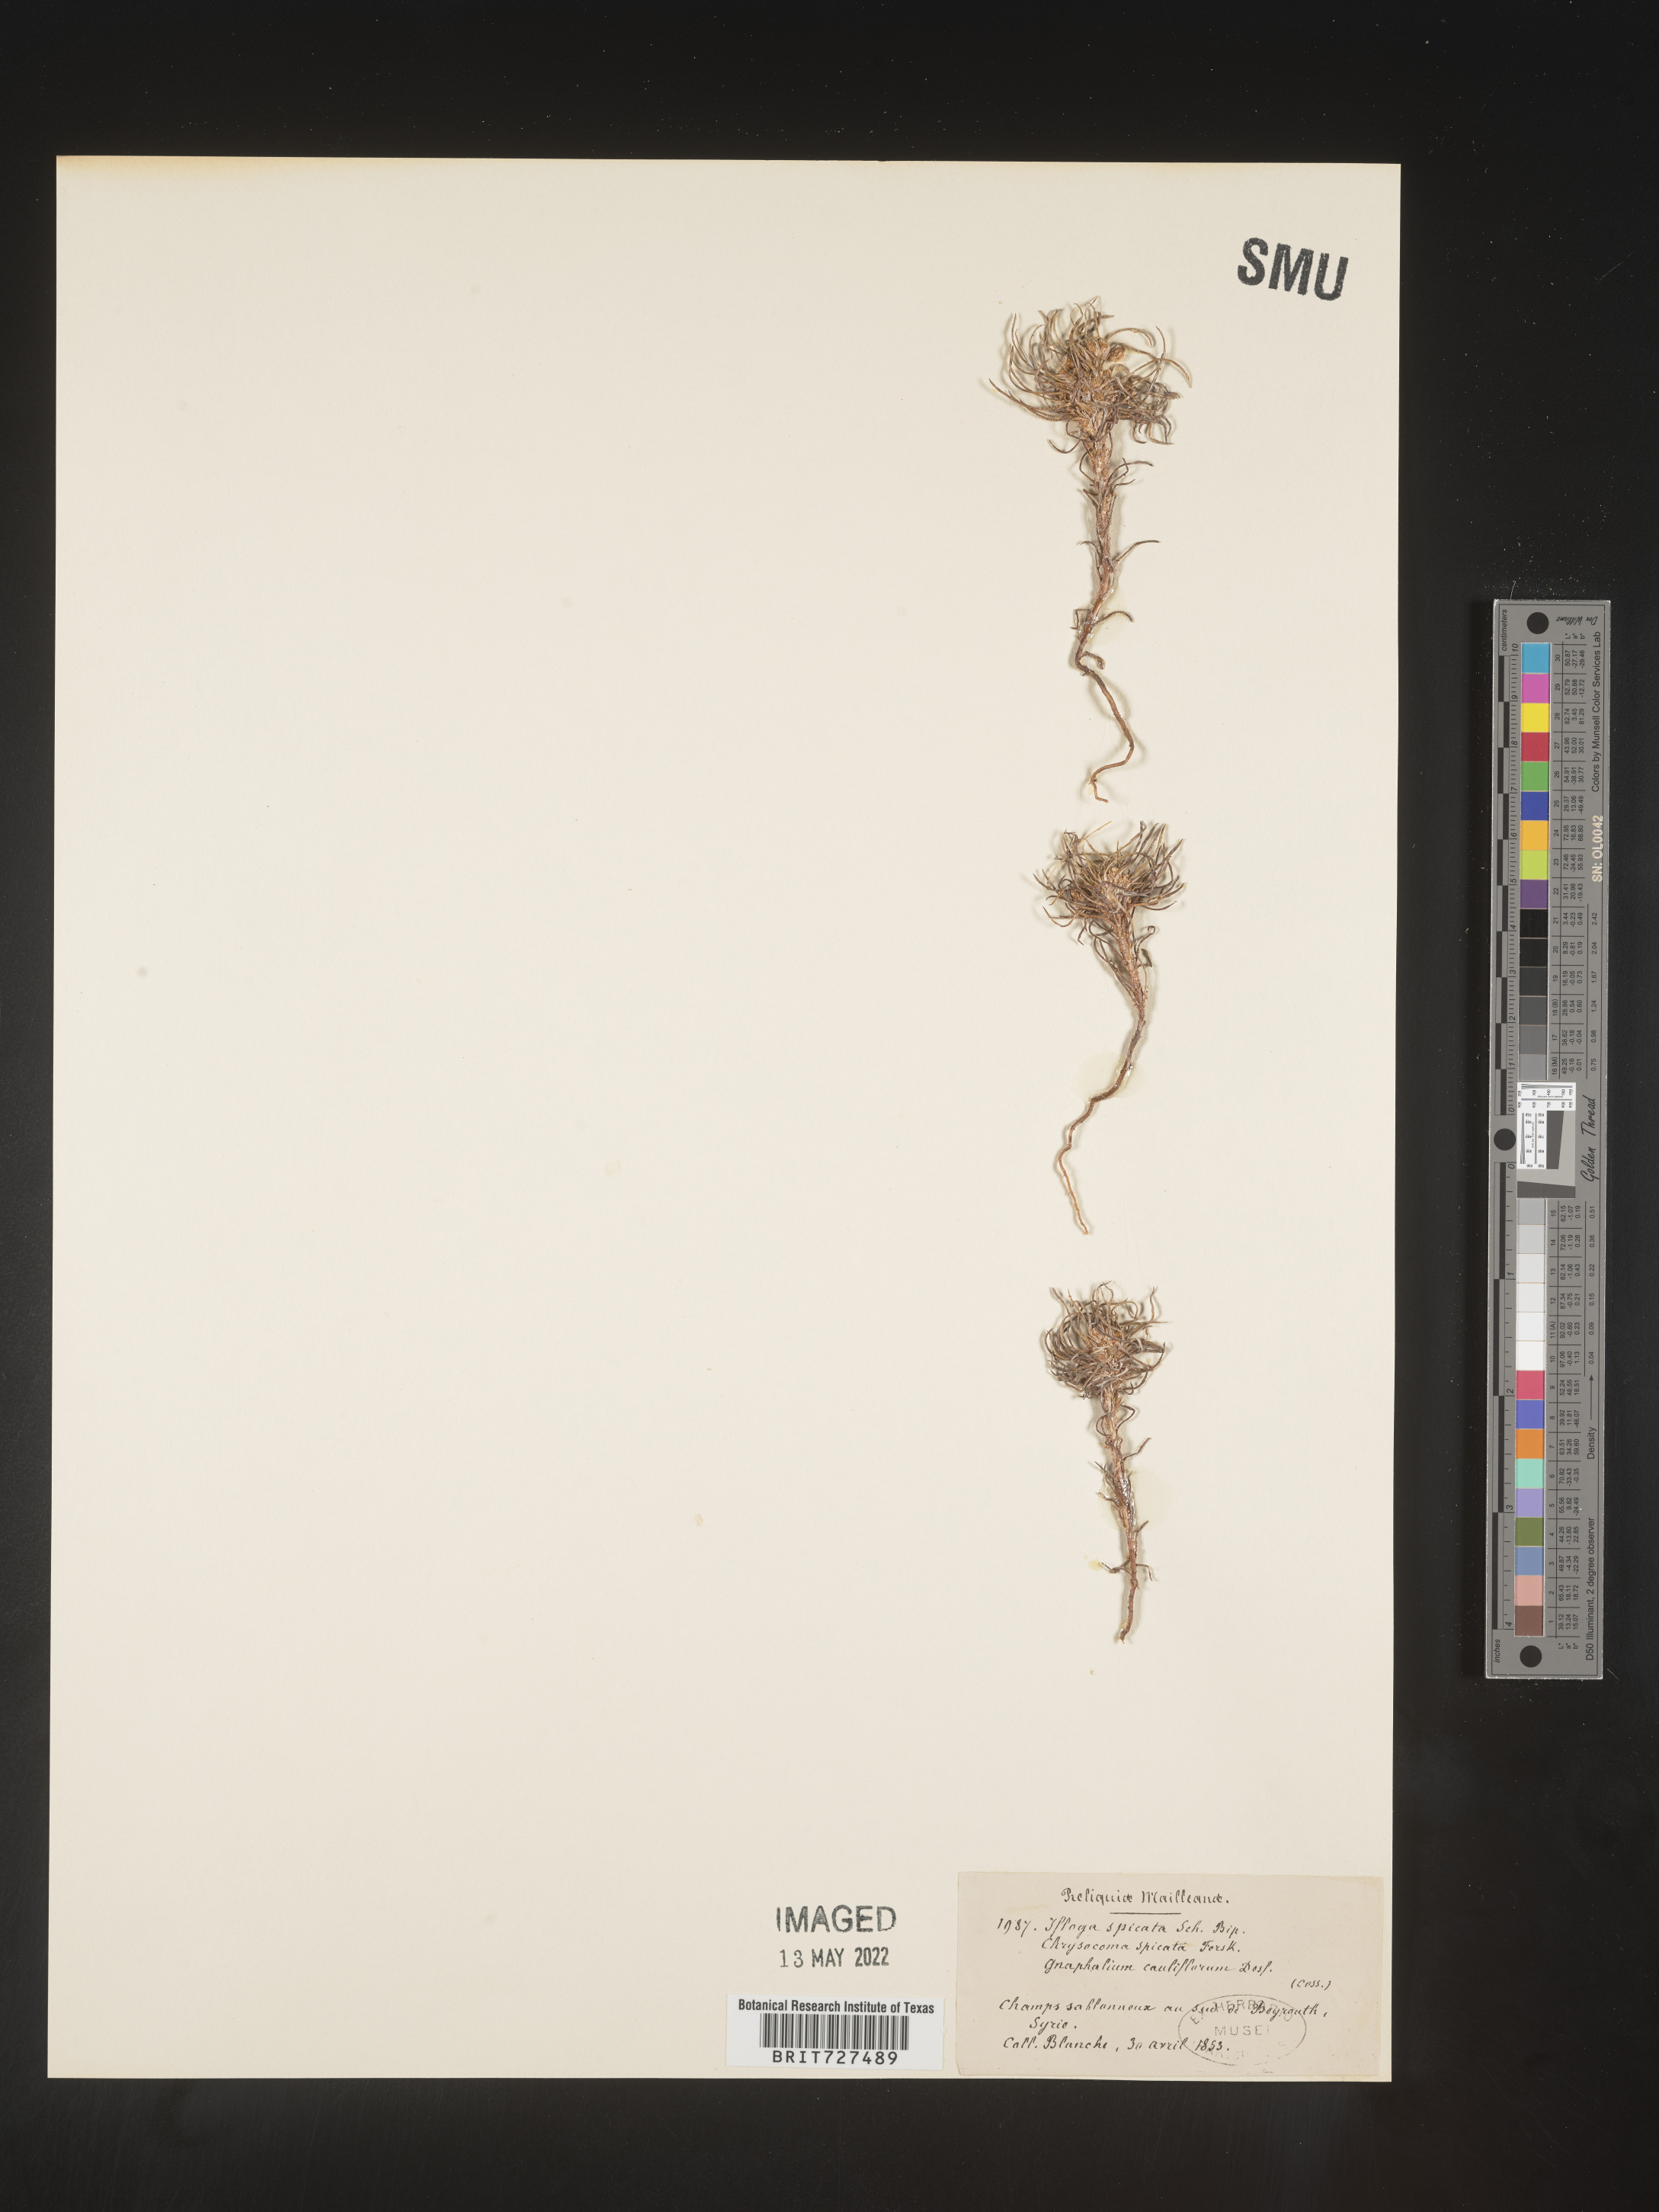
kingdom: Plantae
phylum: Tracheophyta
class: Magnoliopsida
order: Asterales
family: Asteraceae
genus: Ifloga
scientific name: Ifloga
